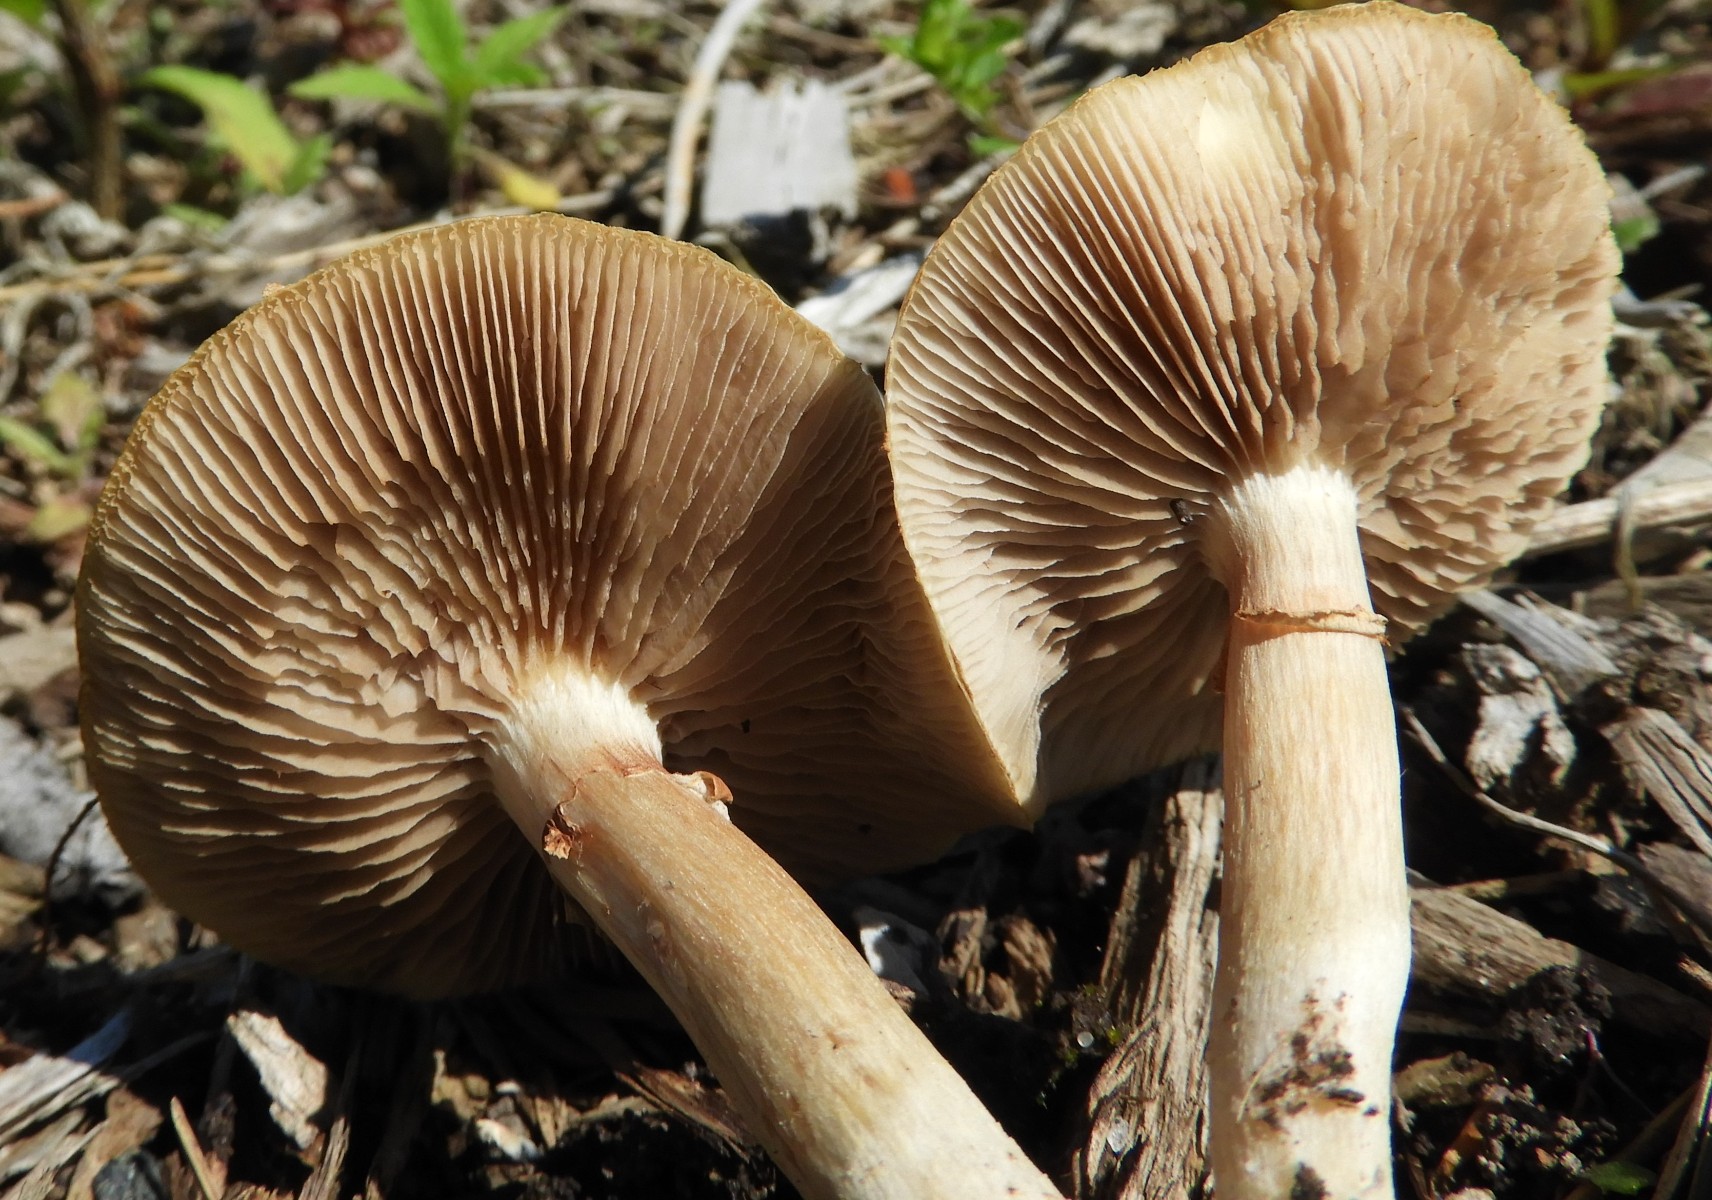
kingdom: Fungi
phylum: Basidiomycota
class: Agaricomycetes
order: Agaricales
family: Strophariaceae
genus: Agrocybe
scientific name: Agrocybe praecox
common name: tidlig agerhat
